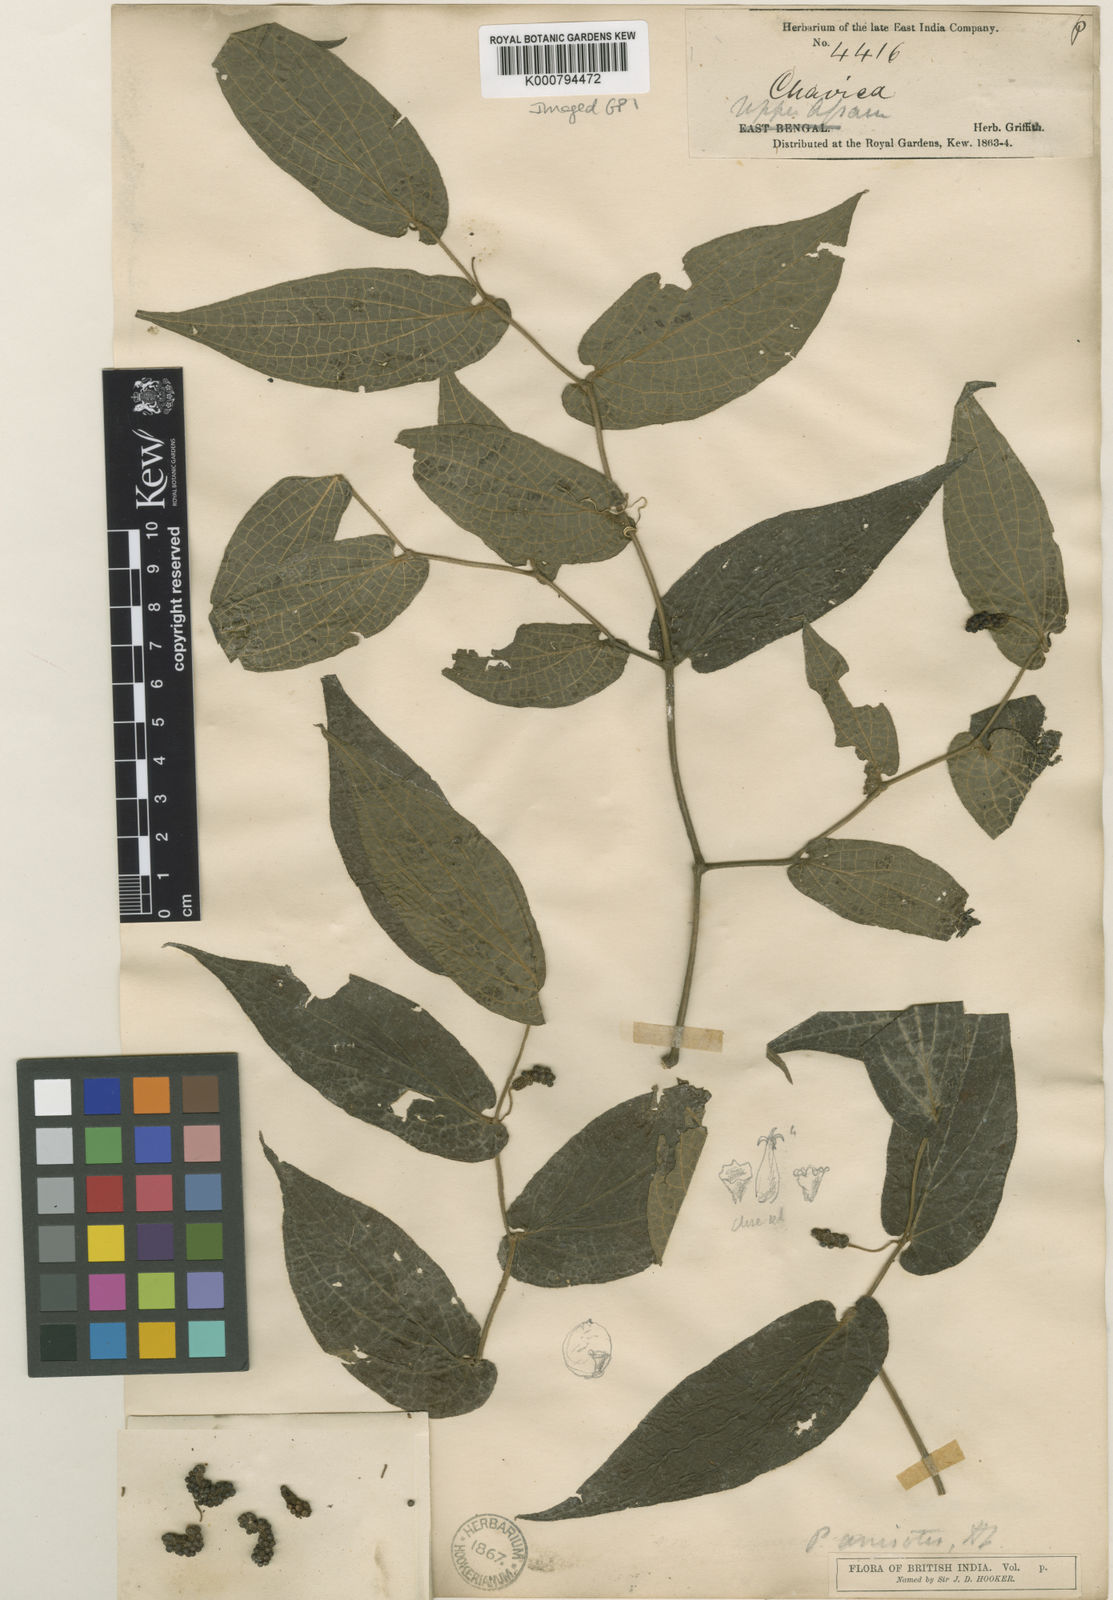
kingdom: Plantae
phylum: Tracheophyta
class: Magnoliopsida
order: Piperales
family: Piperaceae
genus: Piper
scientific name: Piper anisotis
